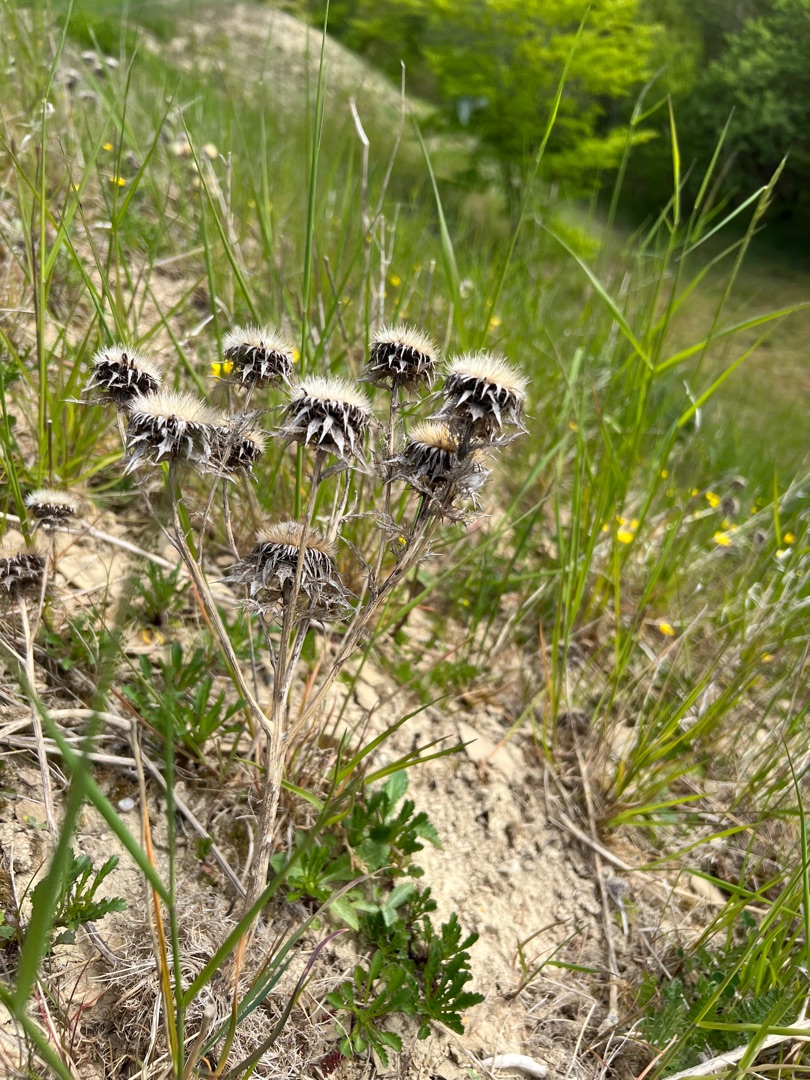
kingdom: Plantae
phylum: Tracheophyta
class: Magnoliopsida
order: Asterales
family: Asteraceae
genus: Carlina
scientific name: Carlina vulgaris
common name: Bakketidsel
